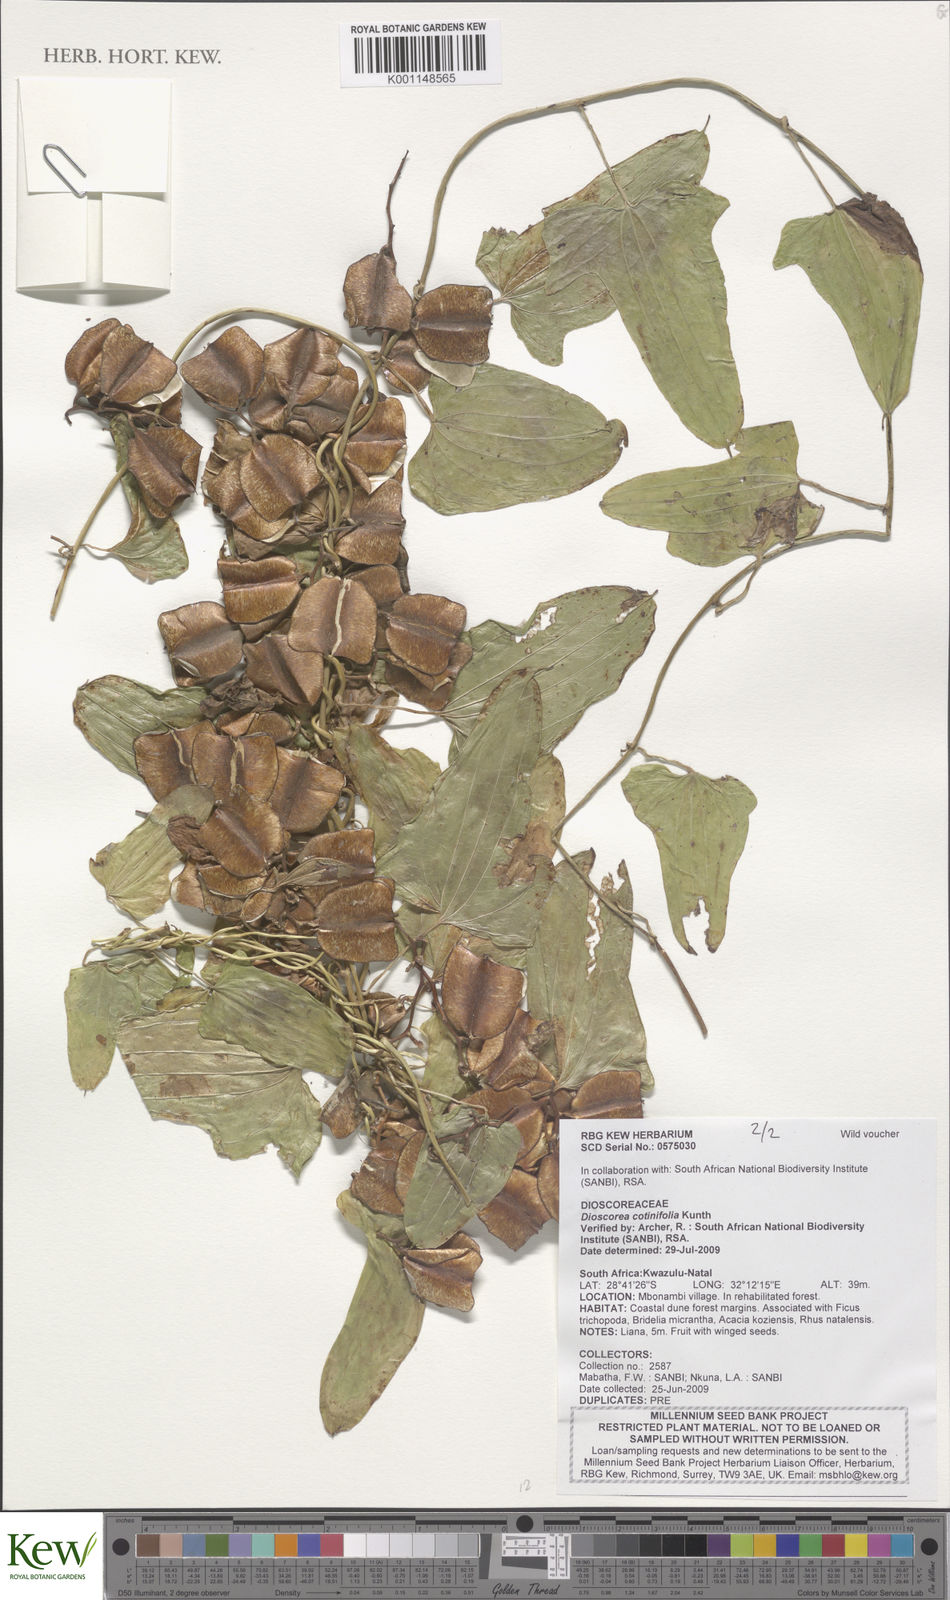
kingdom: Plantae
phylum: Tracheophyta
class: Liliopsida
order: Dioscoreales
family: Dioscoreaceae
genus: Dioscorea
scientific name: Dioscorea cotinifolia
